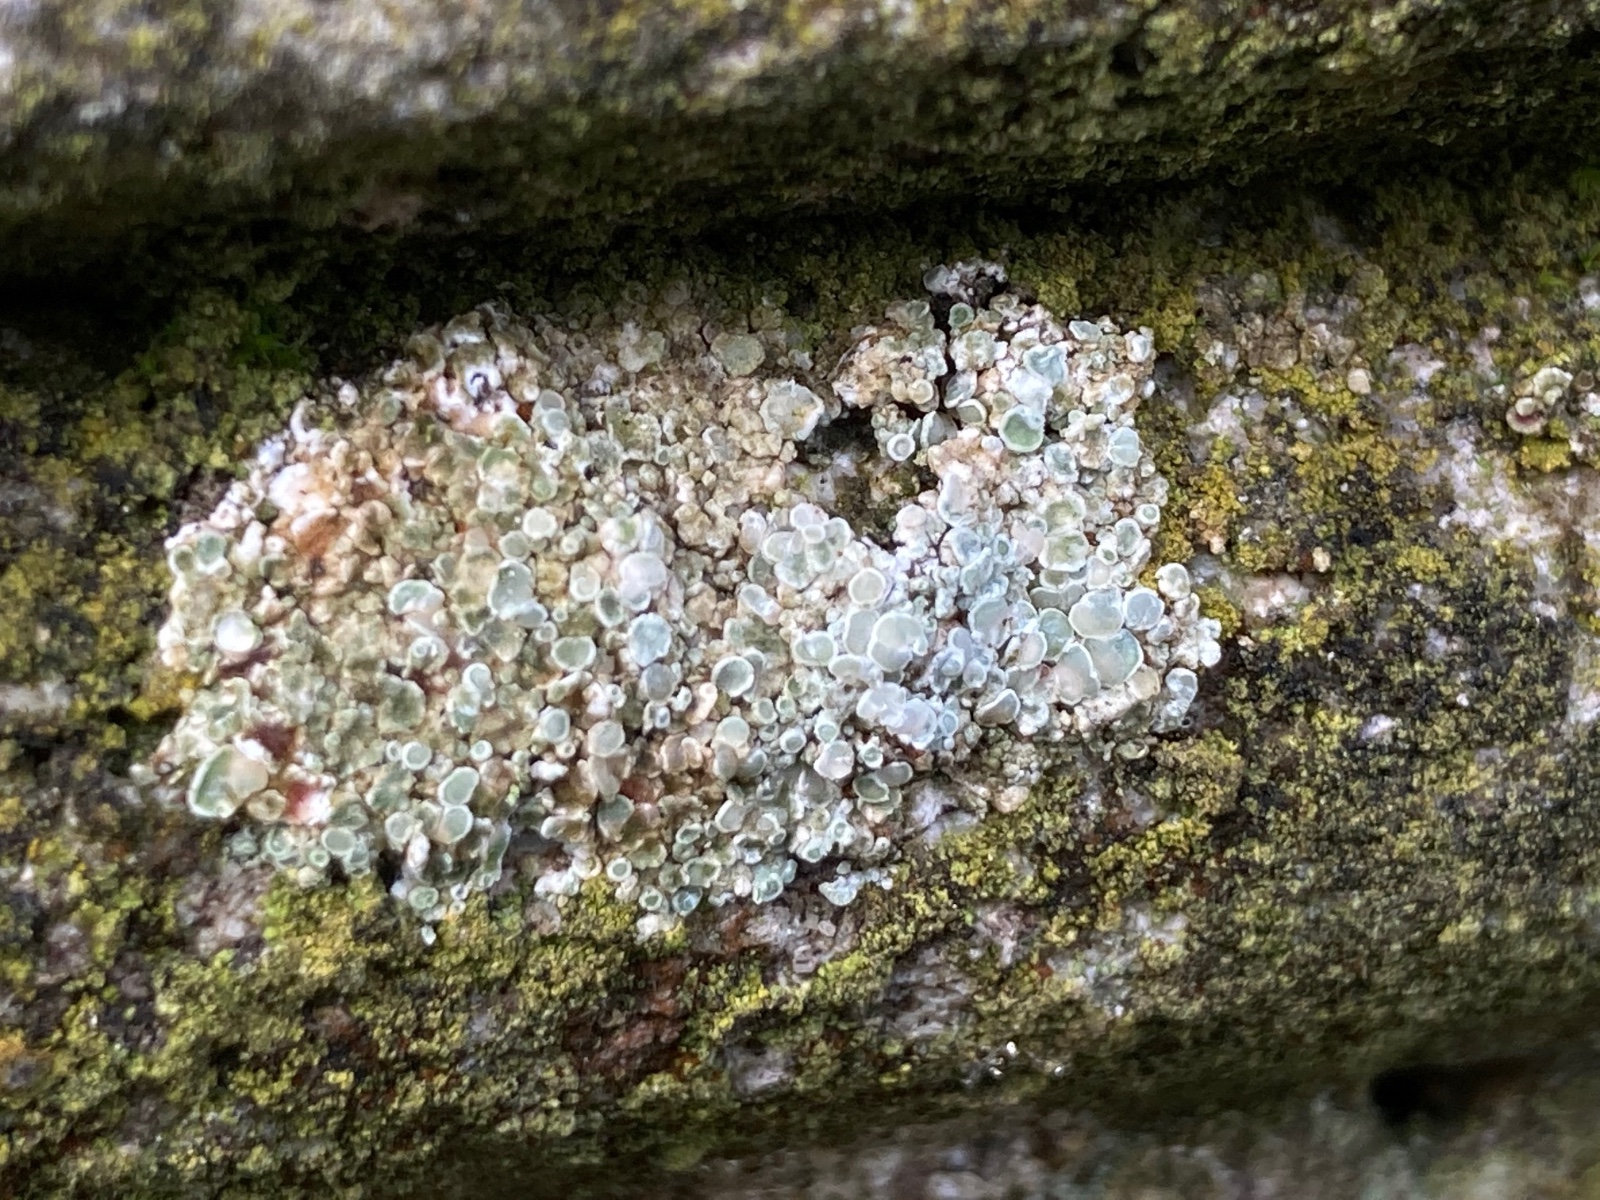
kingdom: Fungi
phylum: Ascomycota
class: Lecanoromycetes
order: Lecanorales
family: Lecanoraceae
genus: Polyozosia
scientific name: Polyozosia albescens
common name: cement-kantskivelav
